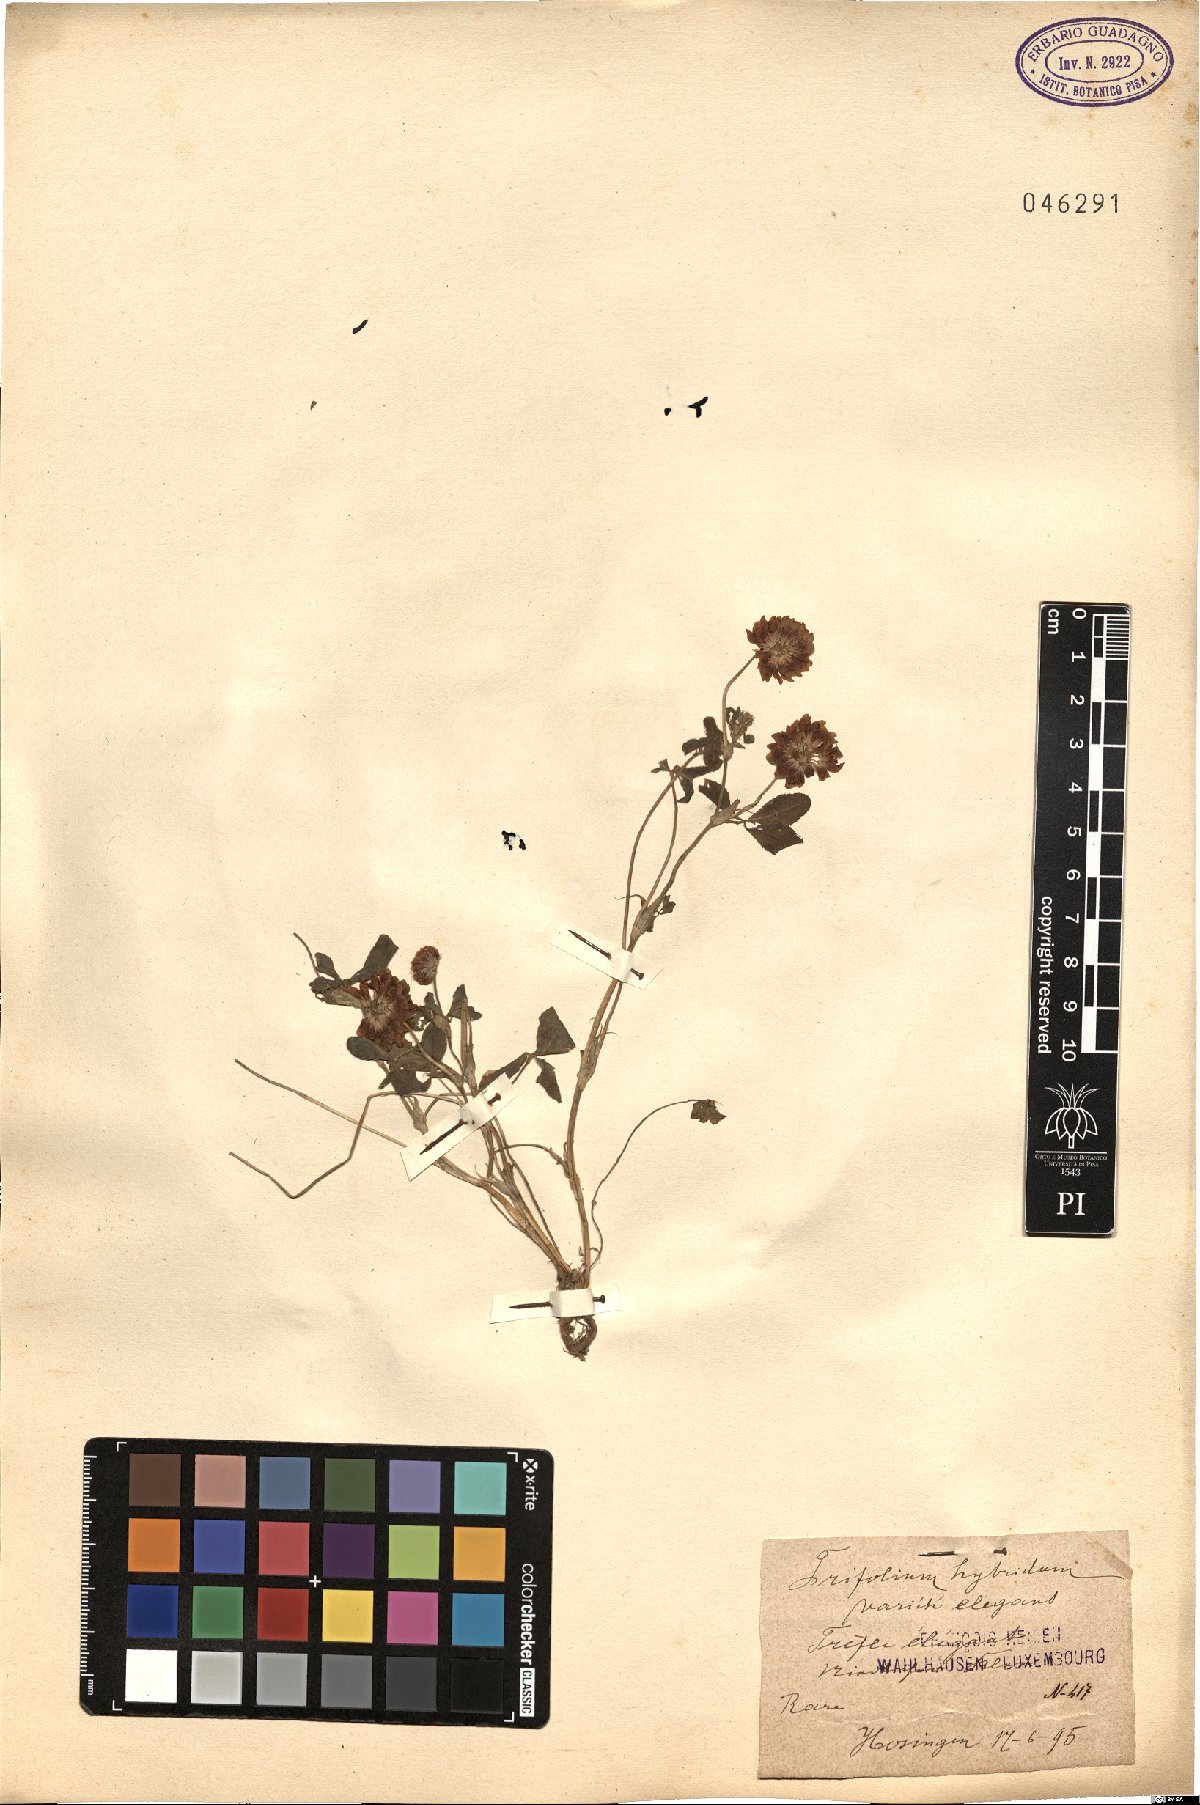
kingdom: Plantae
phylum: Tracheophyta
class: Magnoliopsida
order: Fabales
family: Fabaceae
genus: Trifolium
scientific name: Trifolium hybridum
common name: Alsike clover
